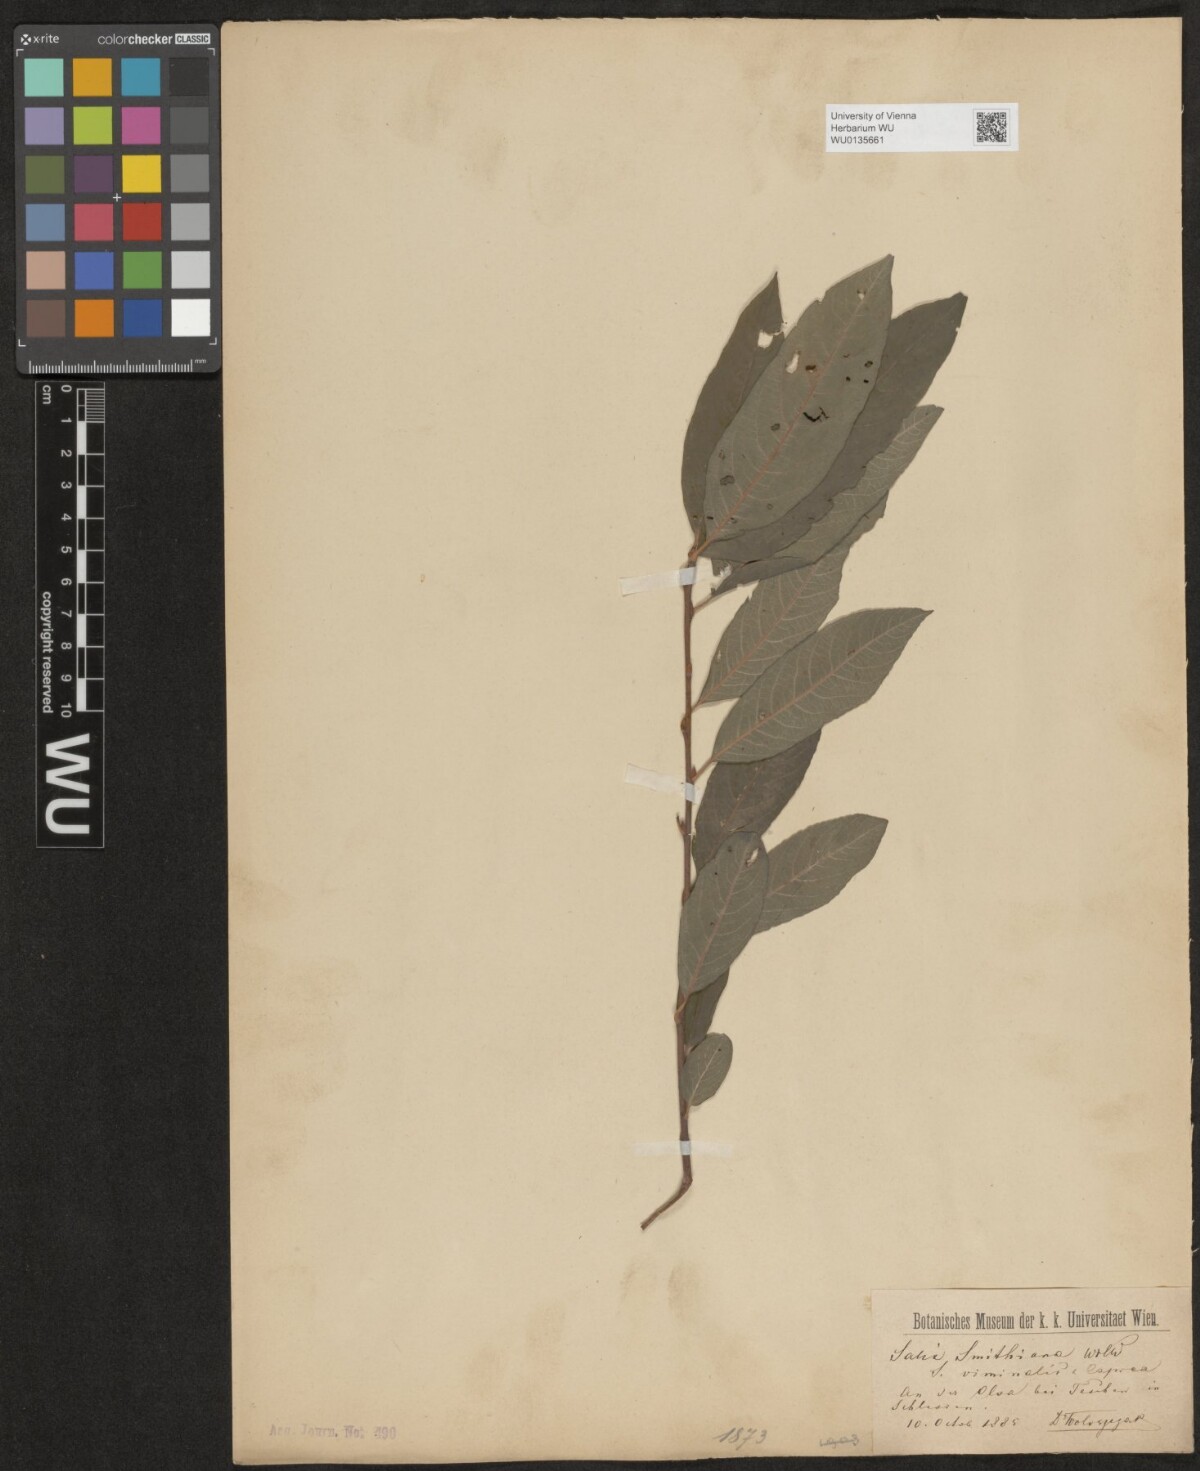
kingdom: Plantae
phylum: Tracheophyta
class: Magnoliopsida
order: Malpighiales
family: Salicaceae
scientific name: Salicaceae
